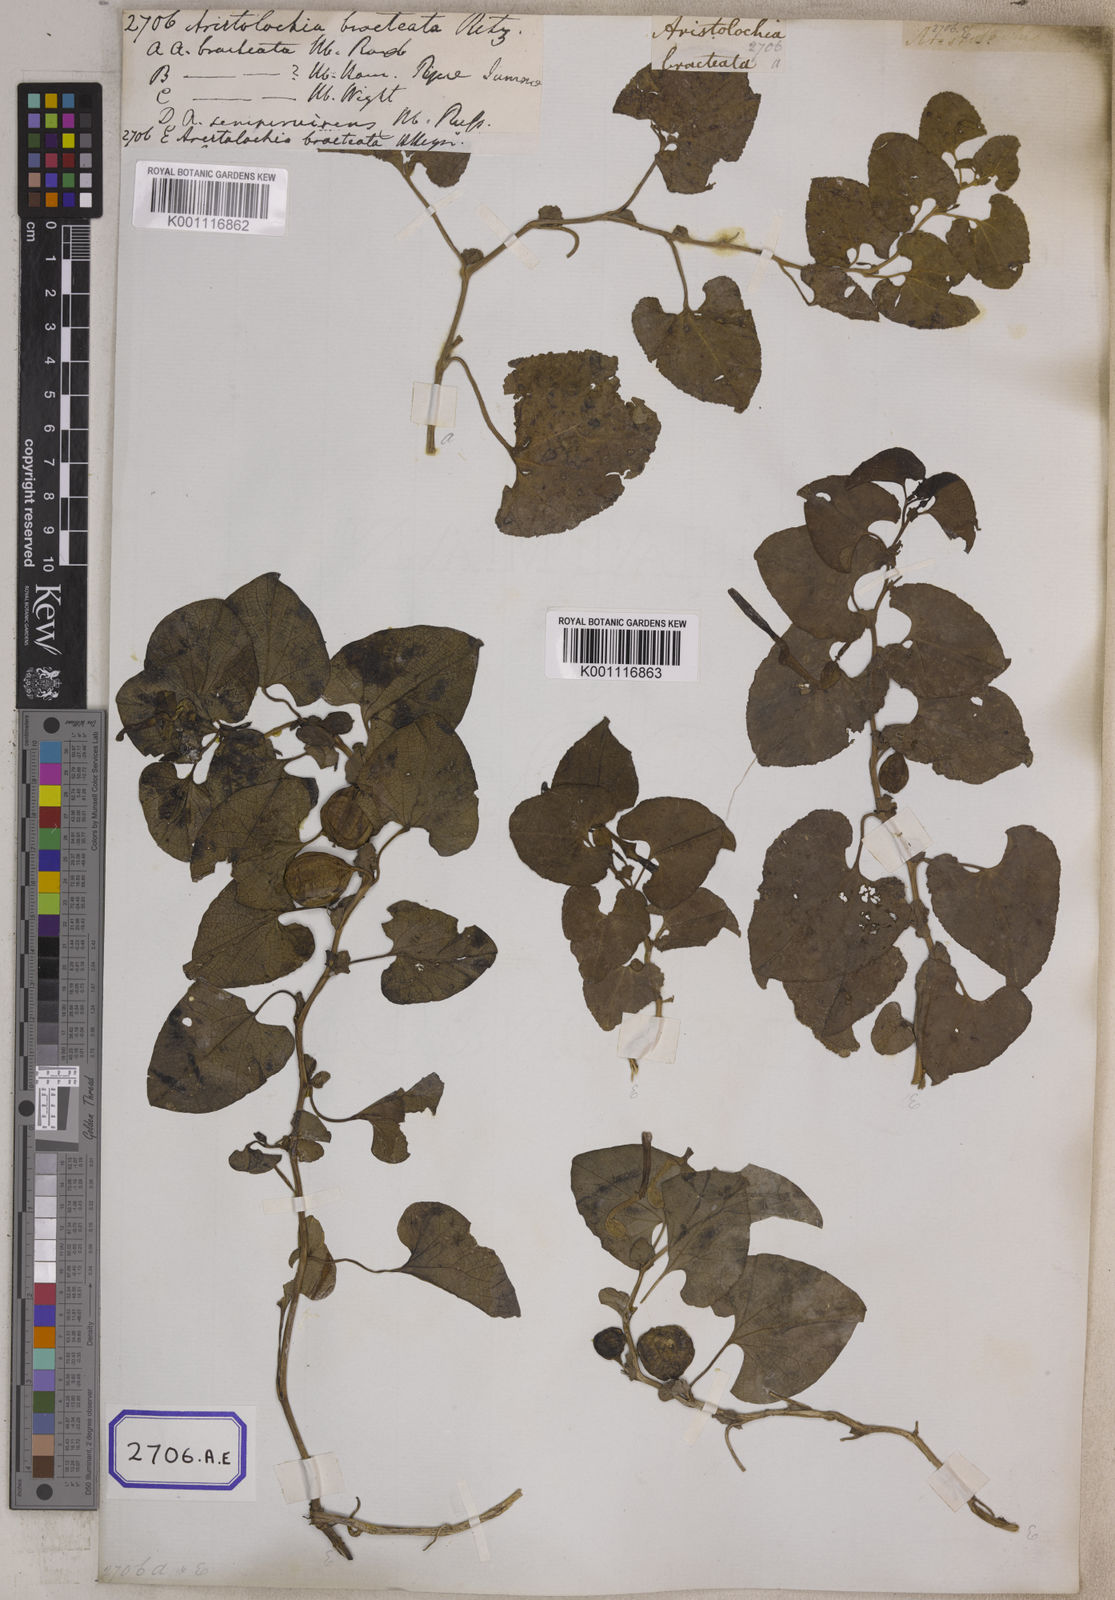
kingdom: Plantae
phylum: Tracheophyta
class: Magnoliopsida
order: Piperales
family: Aristolochiaceae
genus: Aristolochia
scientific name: Aristolochia bracteolata
